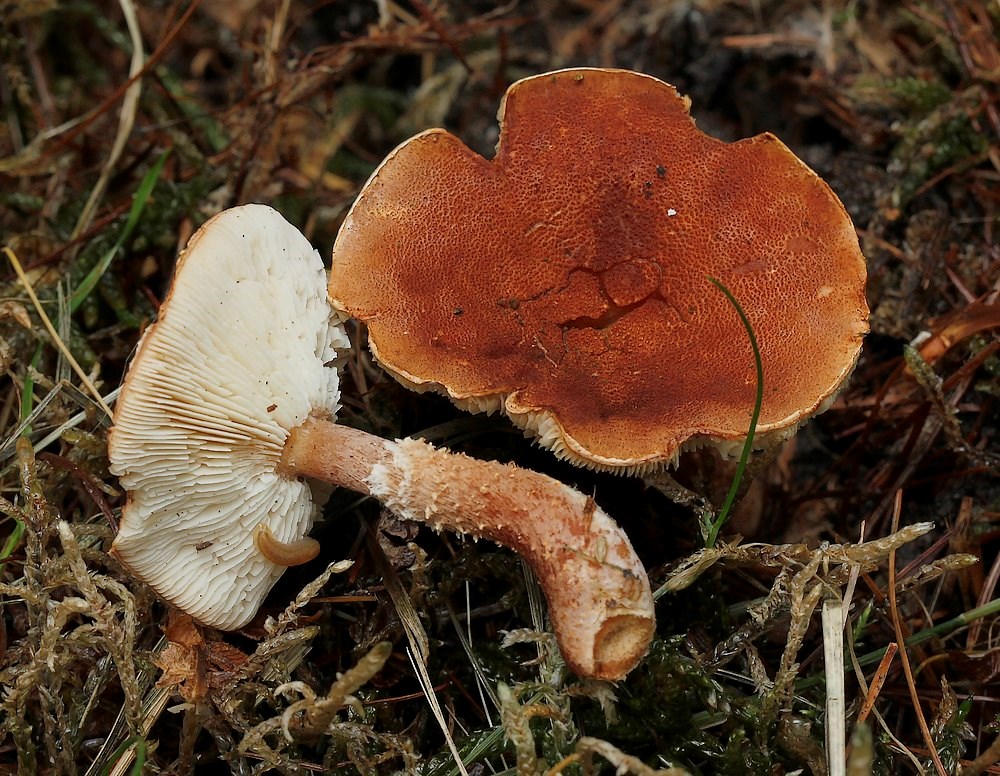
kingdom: Fungi
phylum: Basidiomycota
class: Agaricomycetes
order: Agaricales
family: Agaricaceae
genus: Cystodermella
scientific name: Cystodermella adnatifolia
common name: koralrød grynhat
